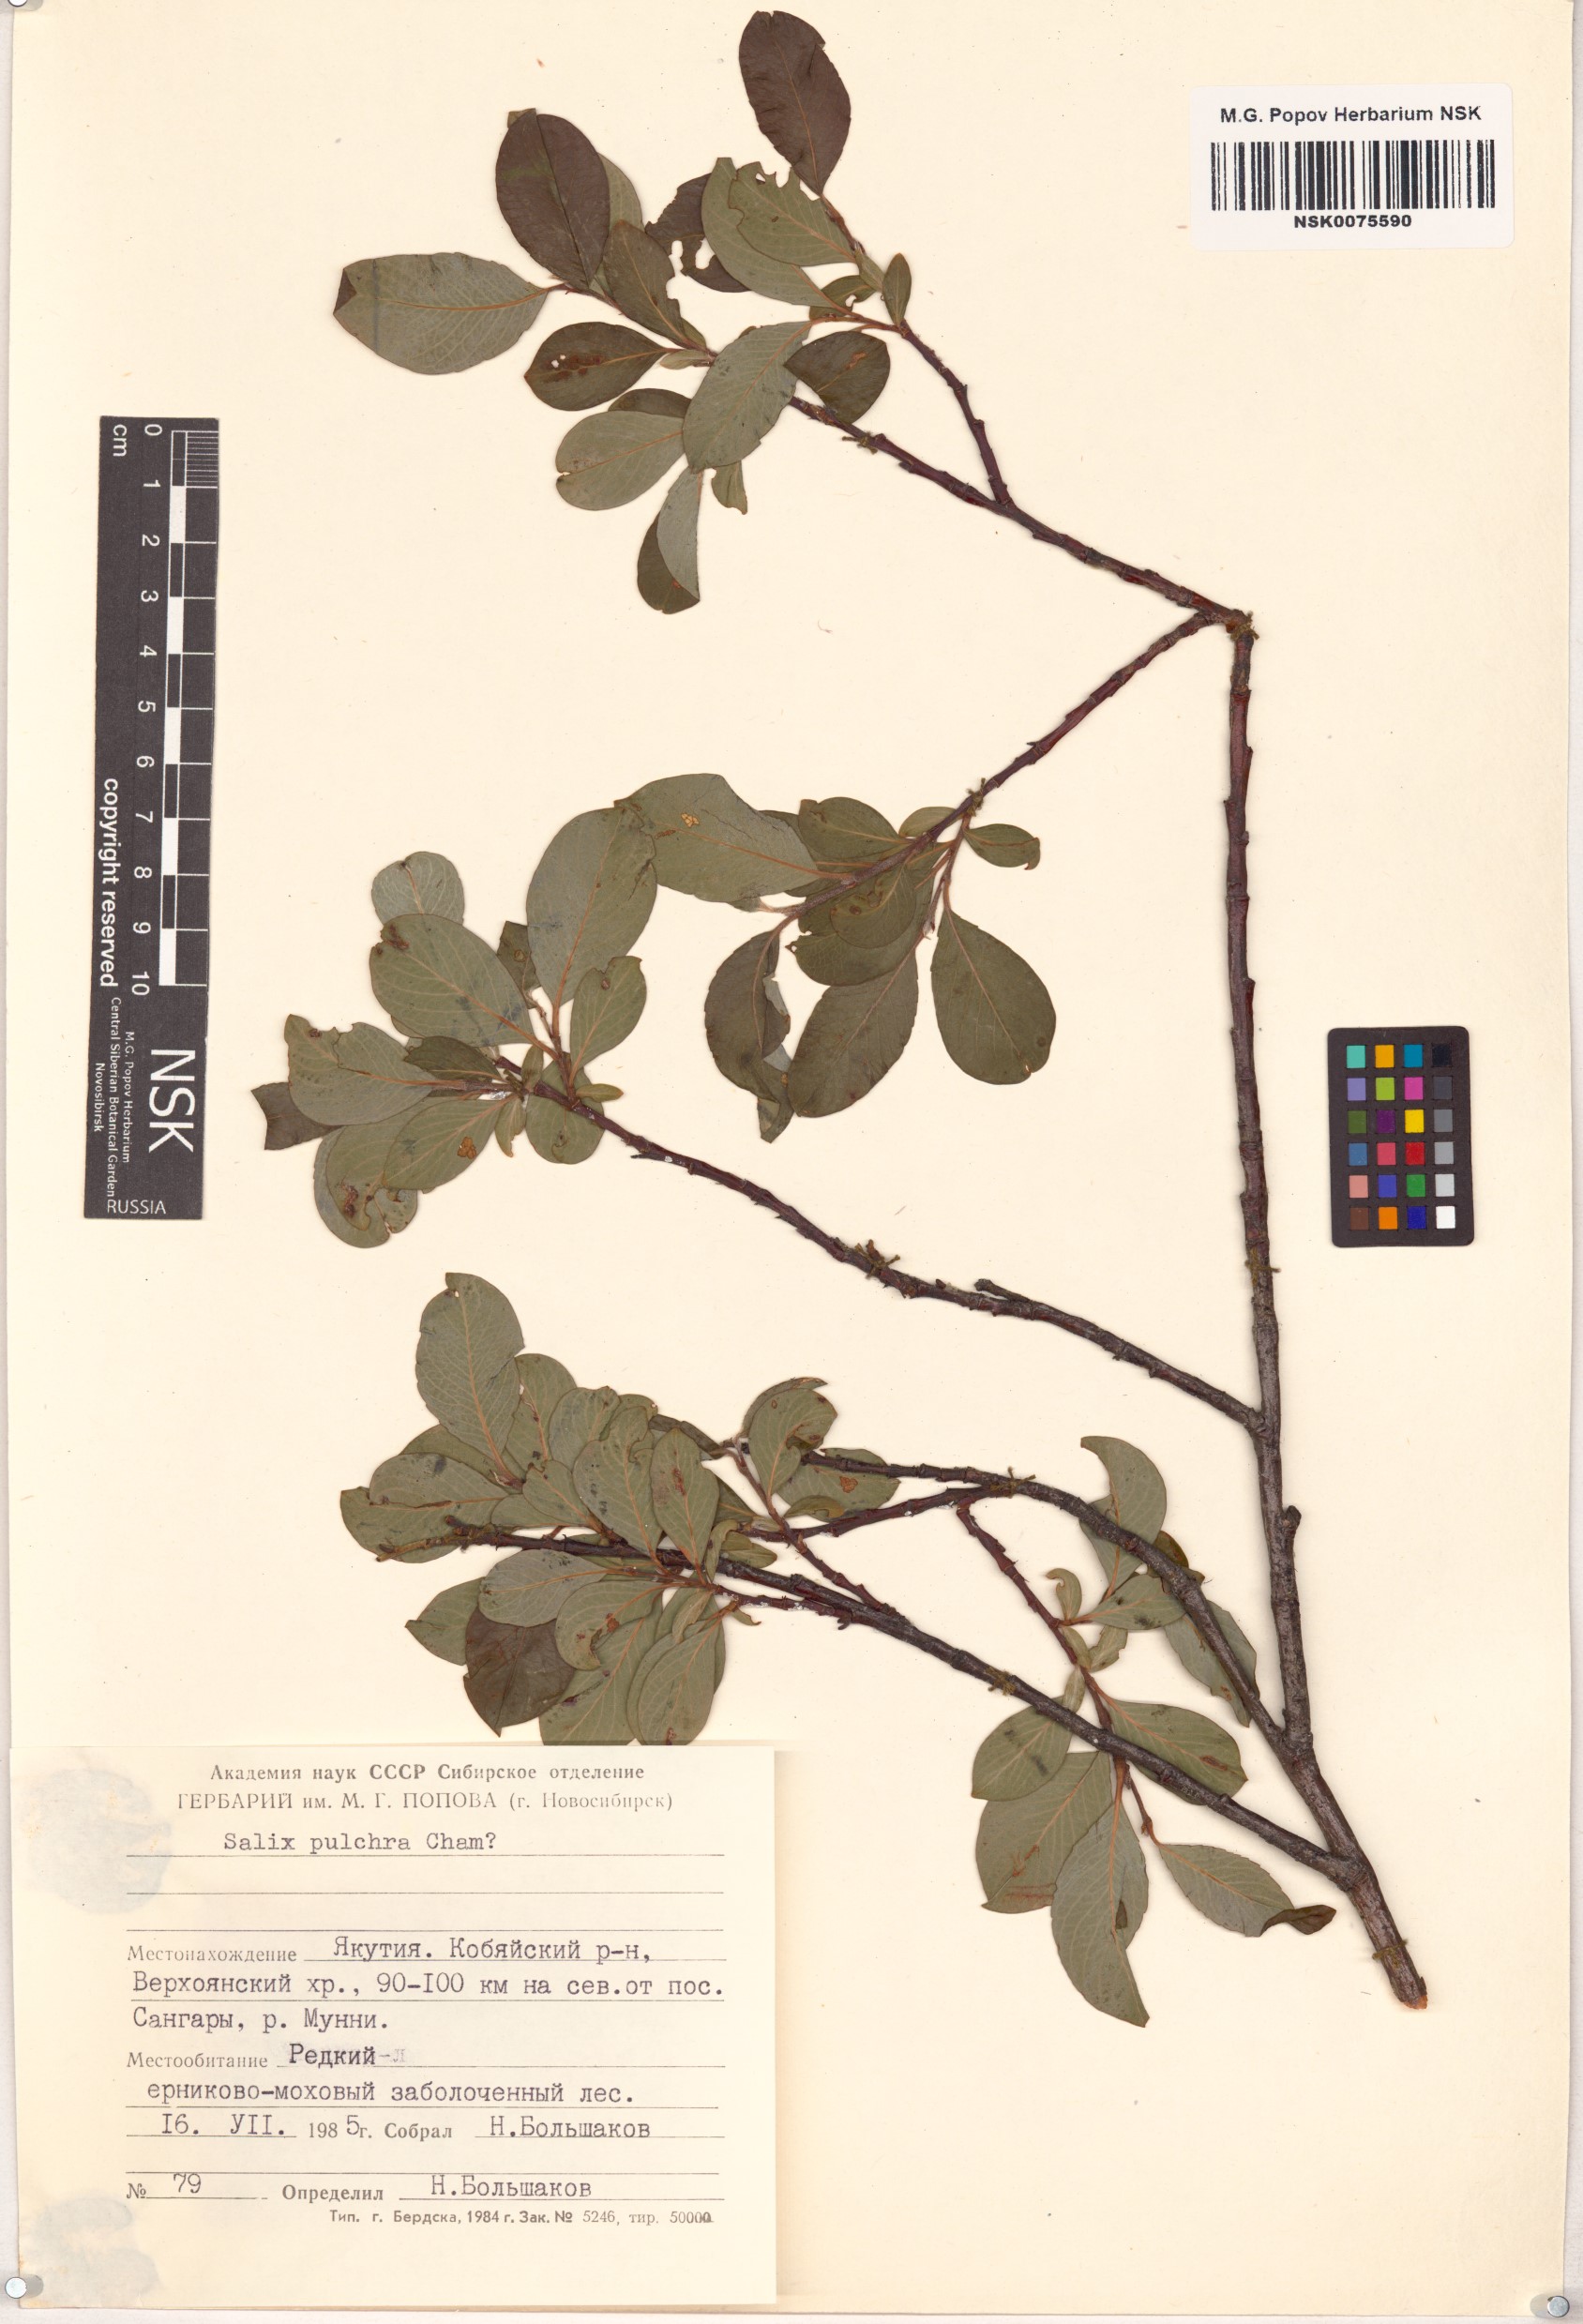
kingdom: Plantae
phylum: Tracheophyta
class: Magnoliopsida
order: Malpighiales
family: Salicaceae
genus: Salix
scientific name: Salix pulchra
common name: Diamond-leaved willow
